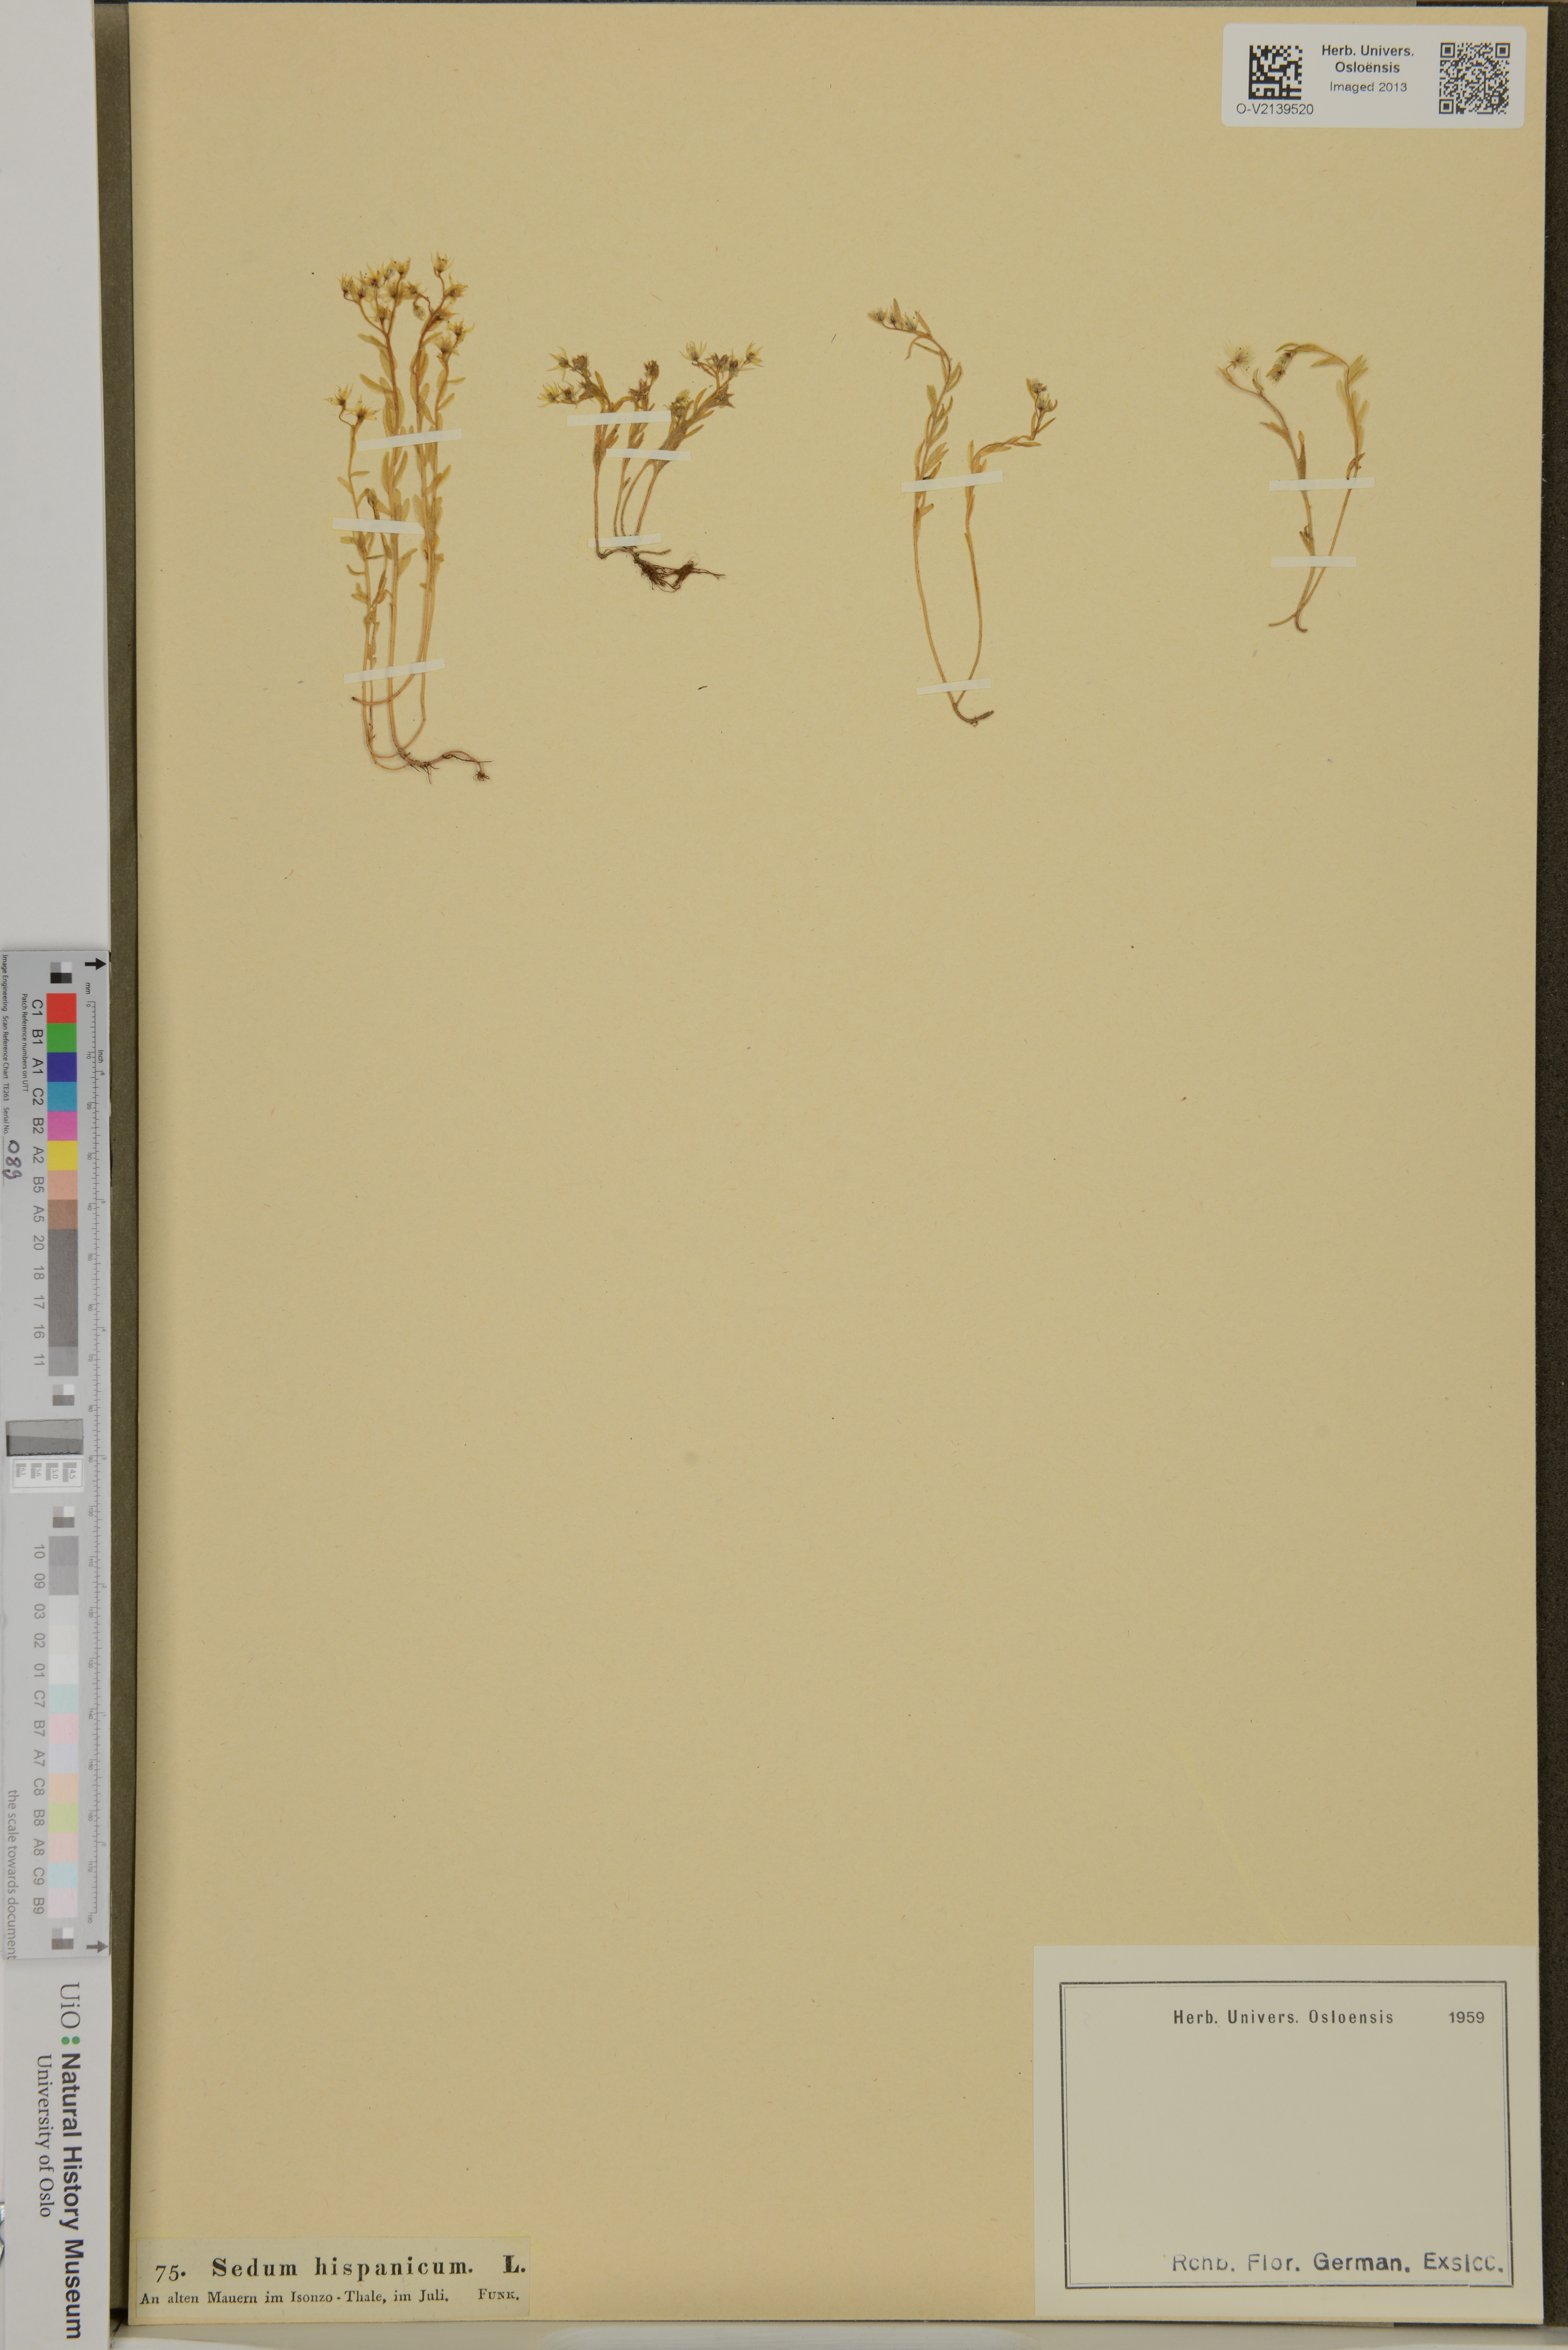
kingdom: Plantae
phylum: Tracheophyta
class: Magnoliopsida
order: Saxifragales
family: Crassulaceae
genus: Sedum
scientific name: Sedum hispanicum
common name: Spanish stonecrop
